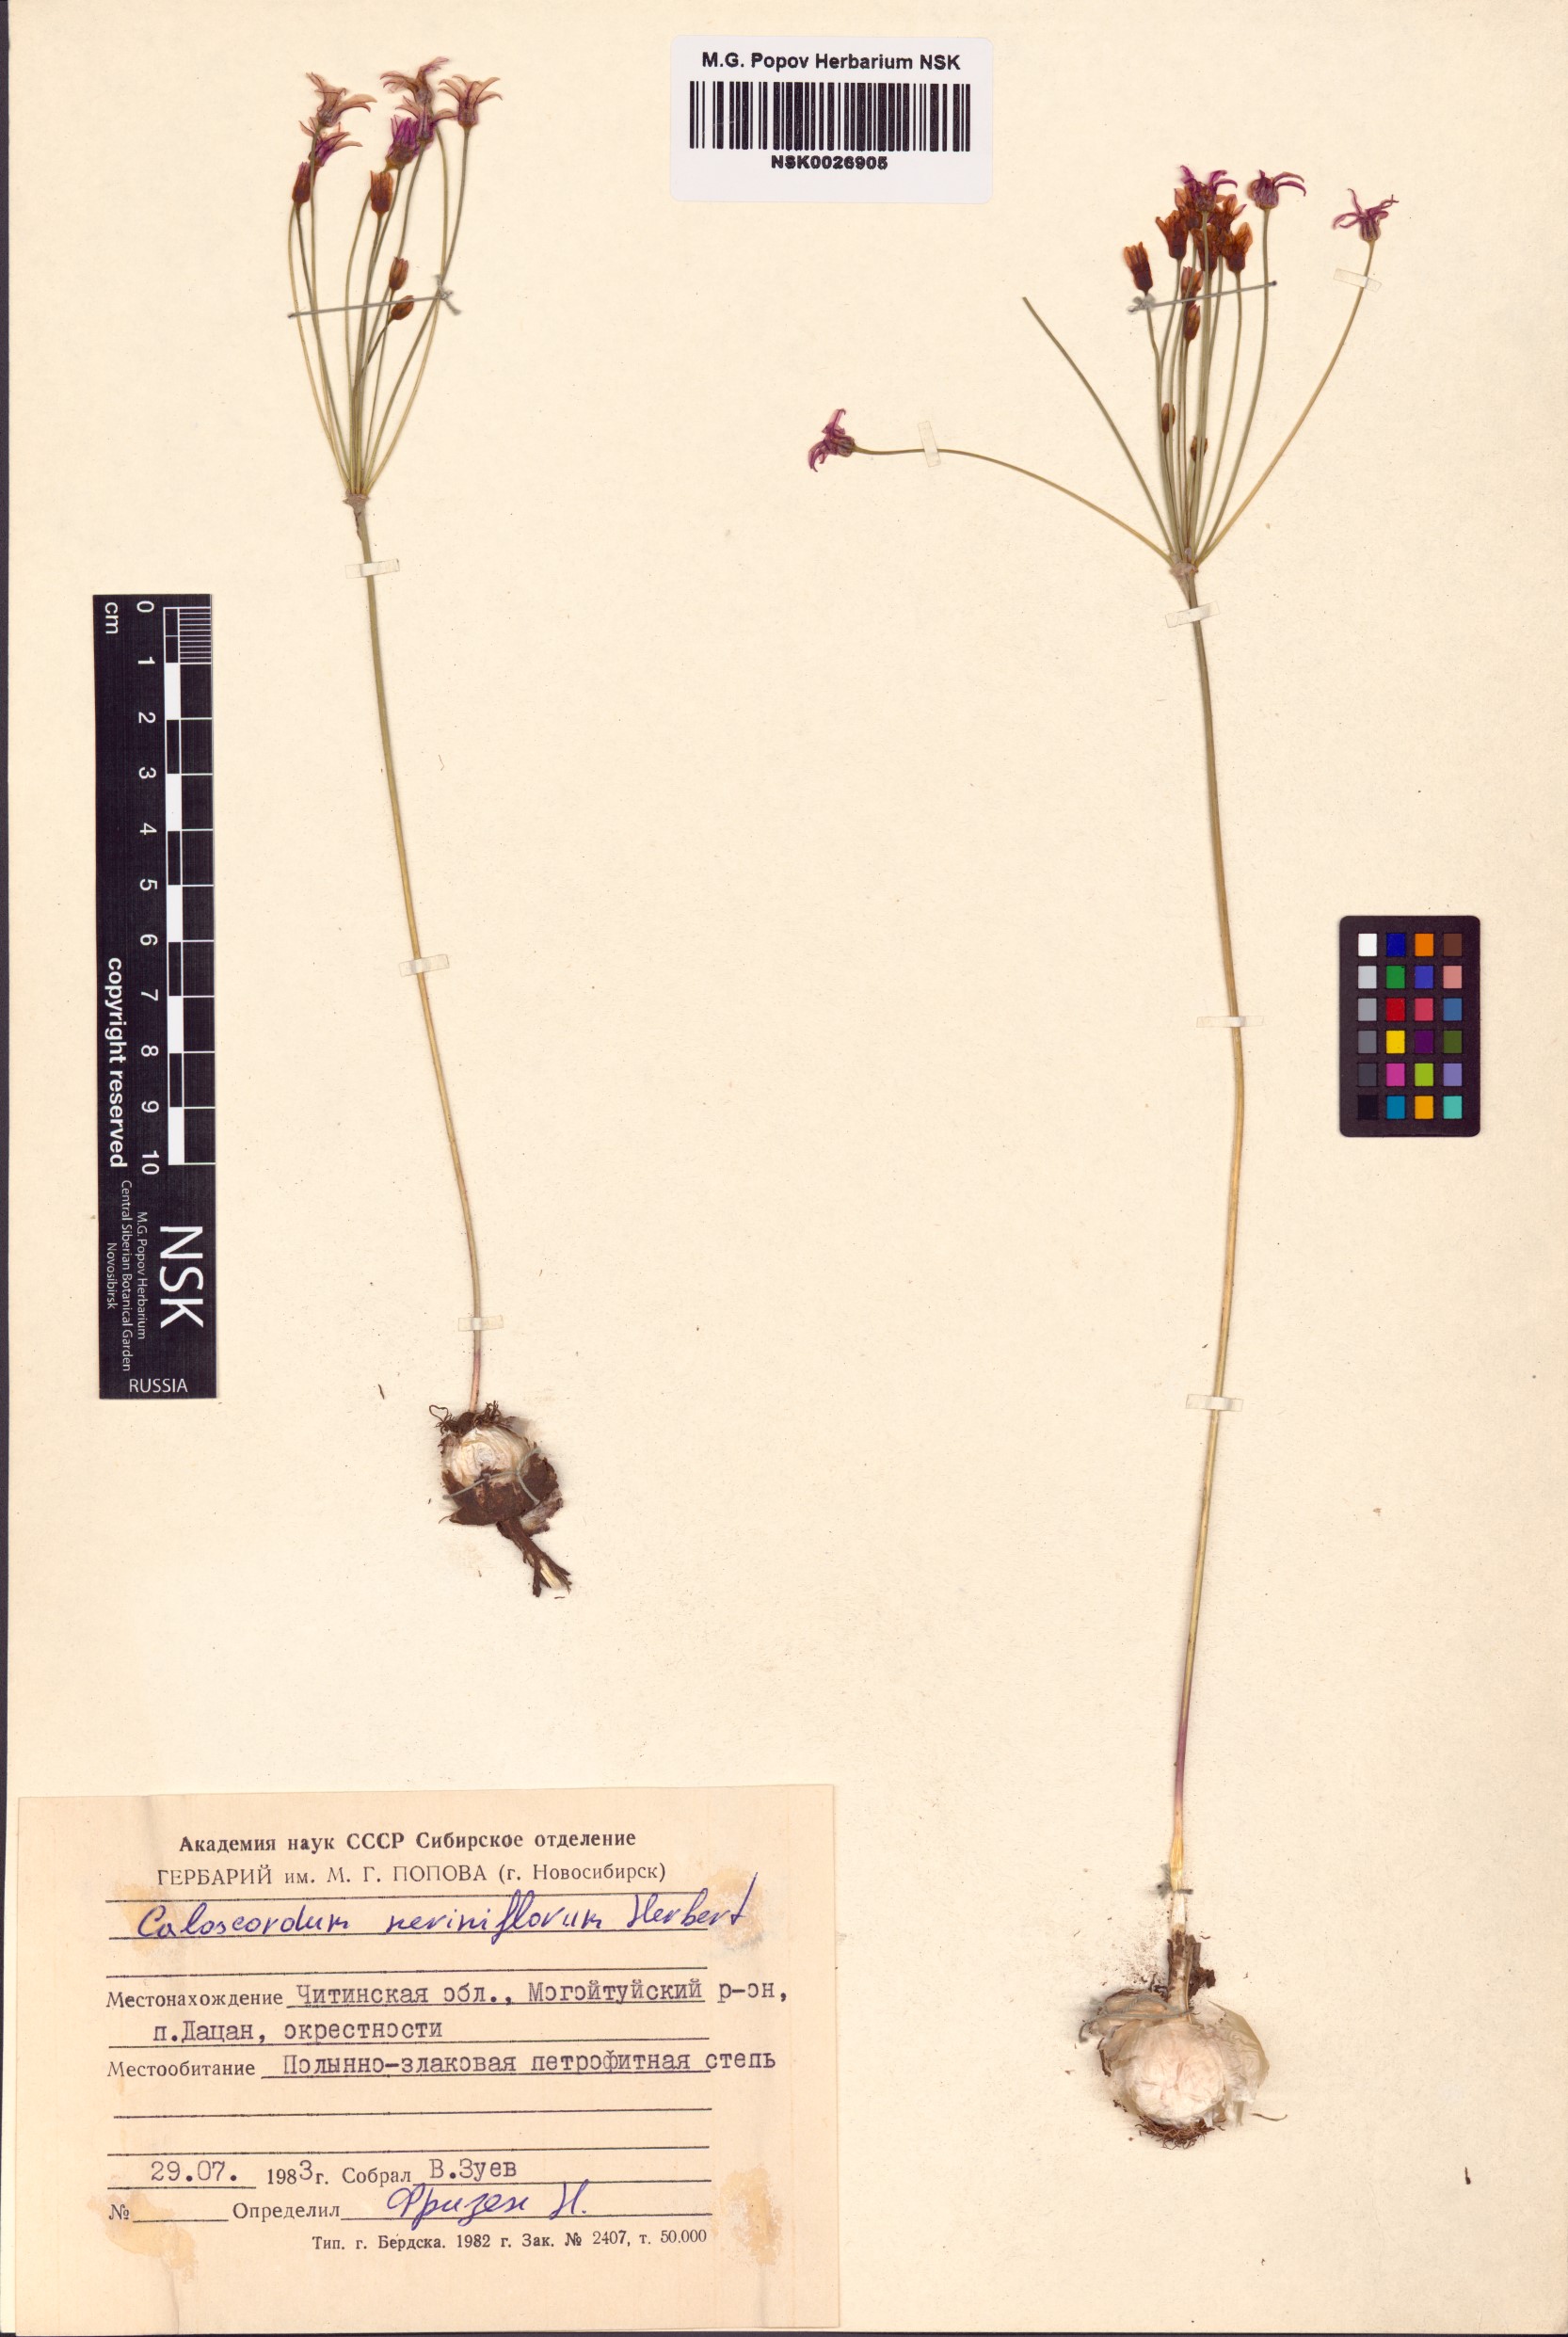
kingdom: Plantae
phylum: Tracheophyta
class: Liliopsida
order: Asparagales
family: Amaryllidaceae
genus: Allium
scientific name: Allium neriniflorum
